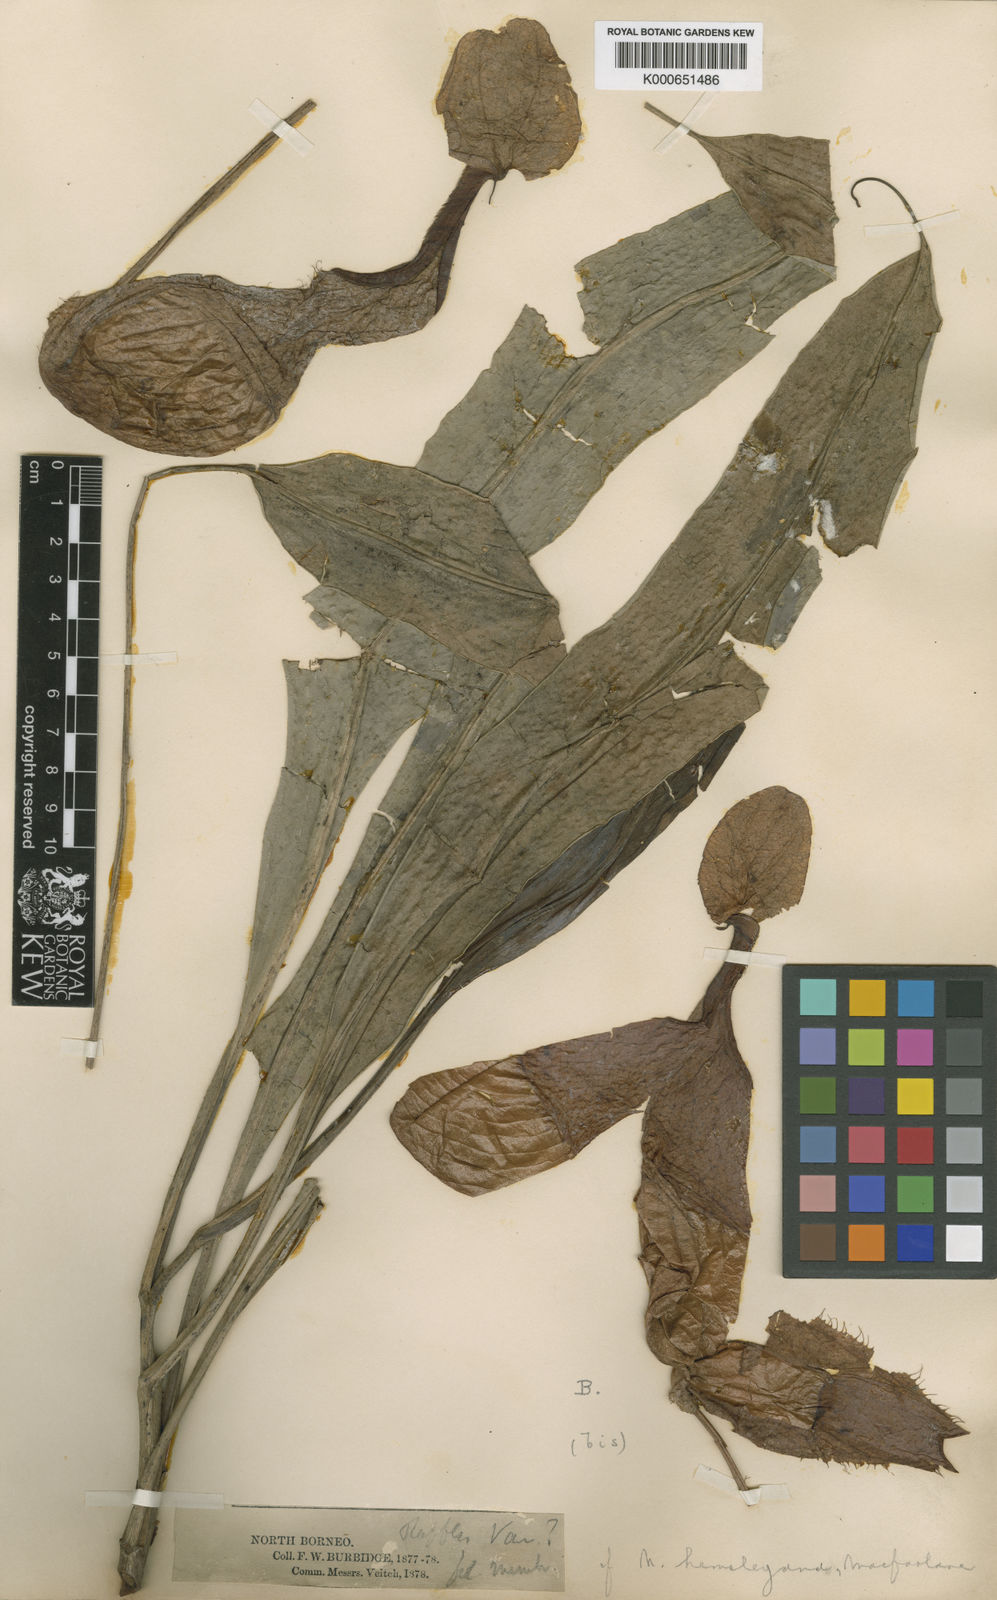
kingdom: Plantae
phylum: Tracheophyta
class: Magnoliopsida
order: Caryophyllales
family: Nepenthaceae
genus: Nepenthes
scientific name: Nepenthes rafflesiana
